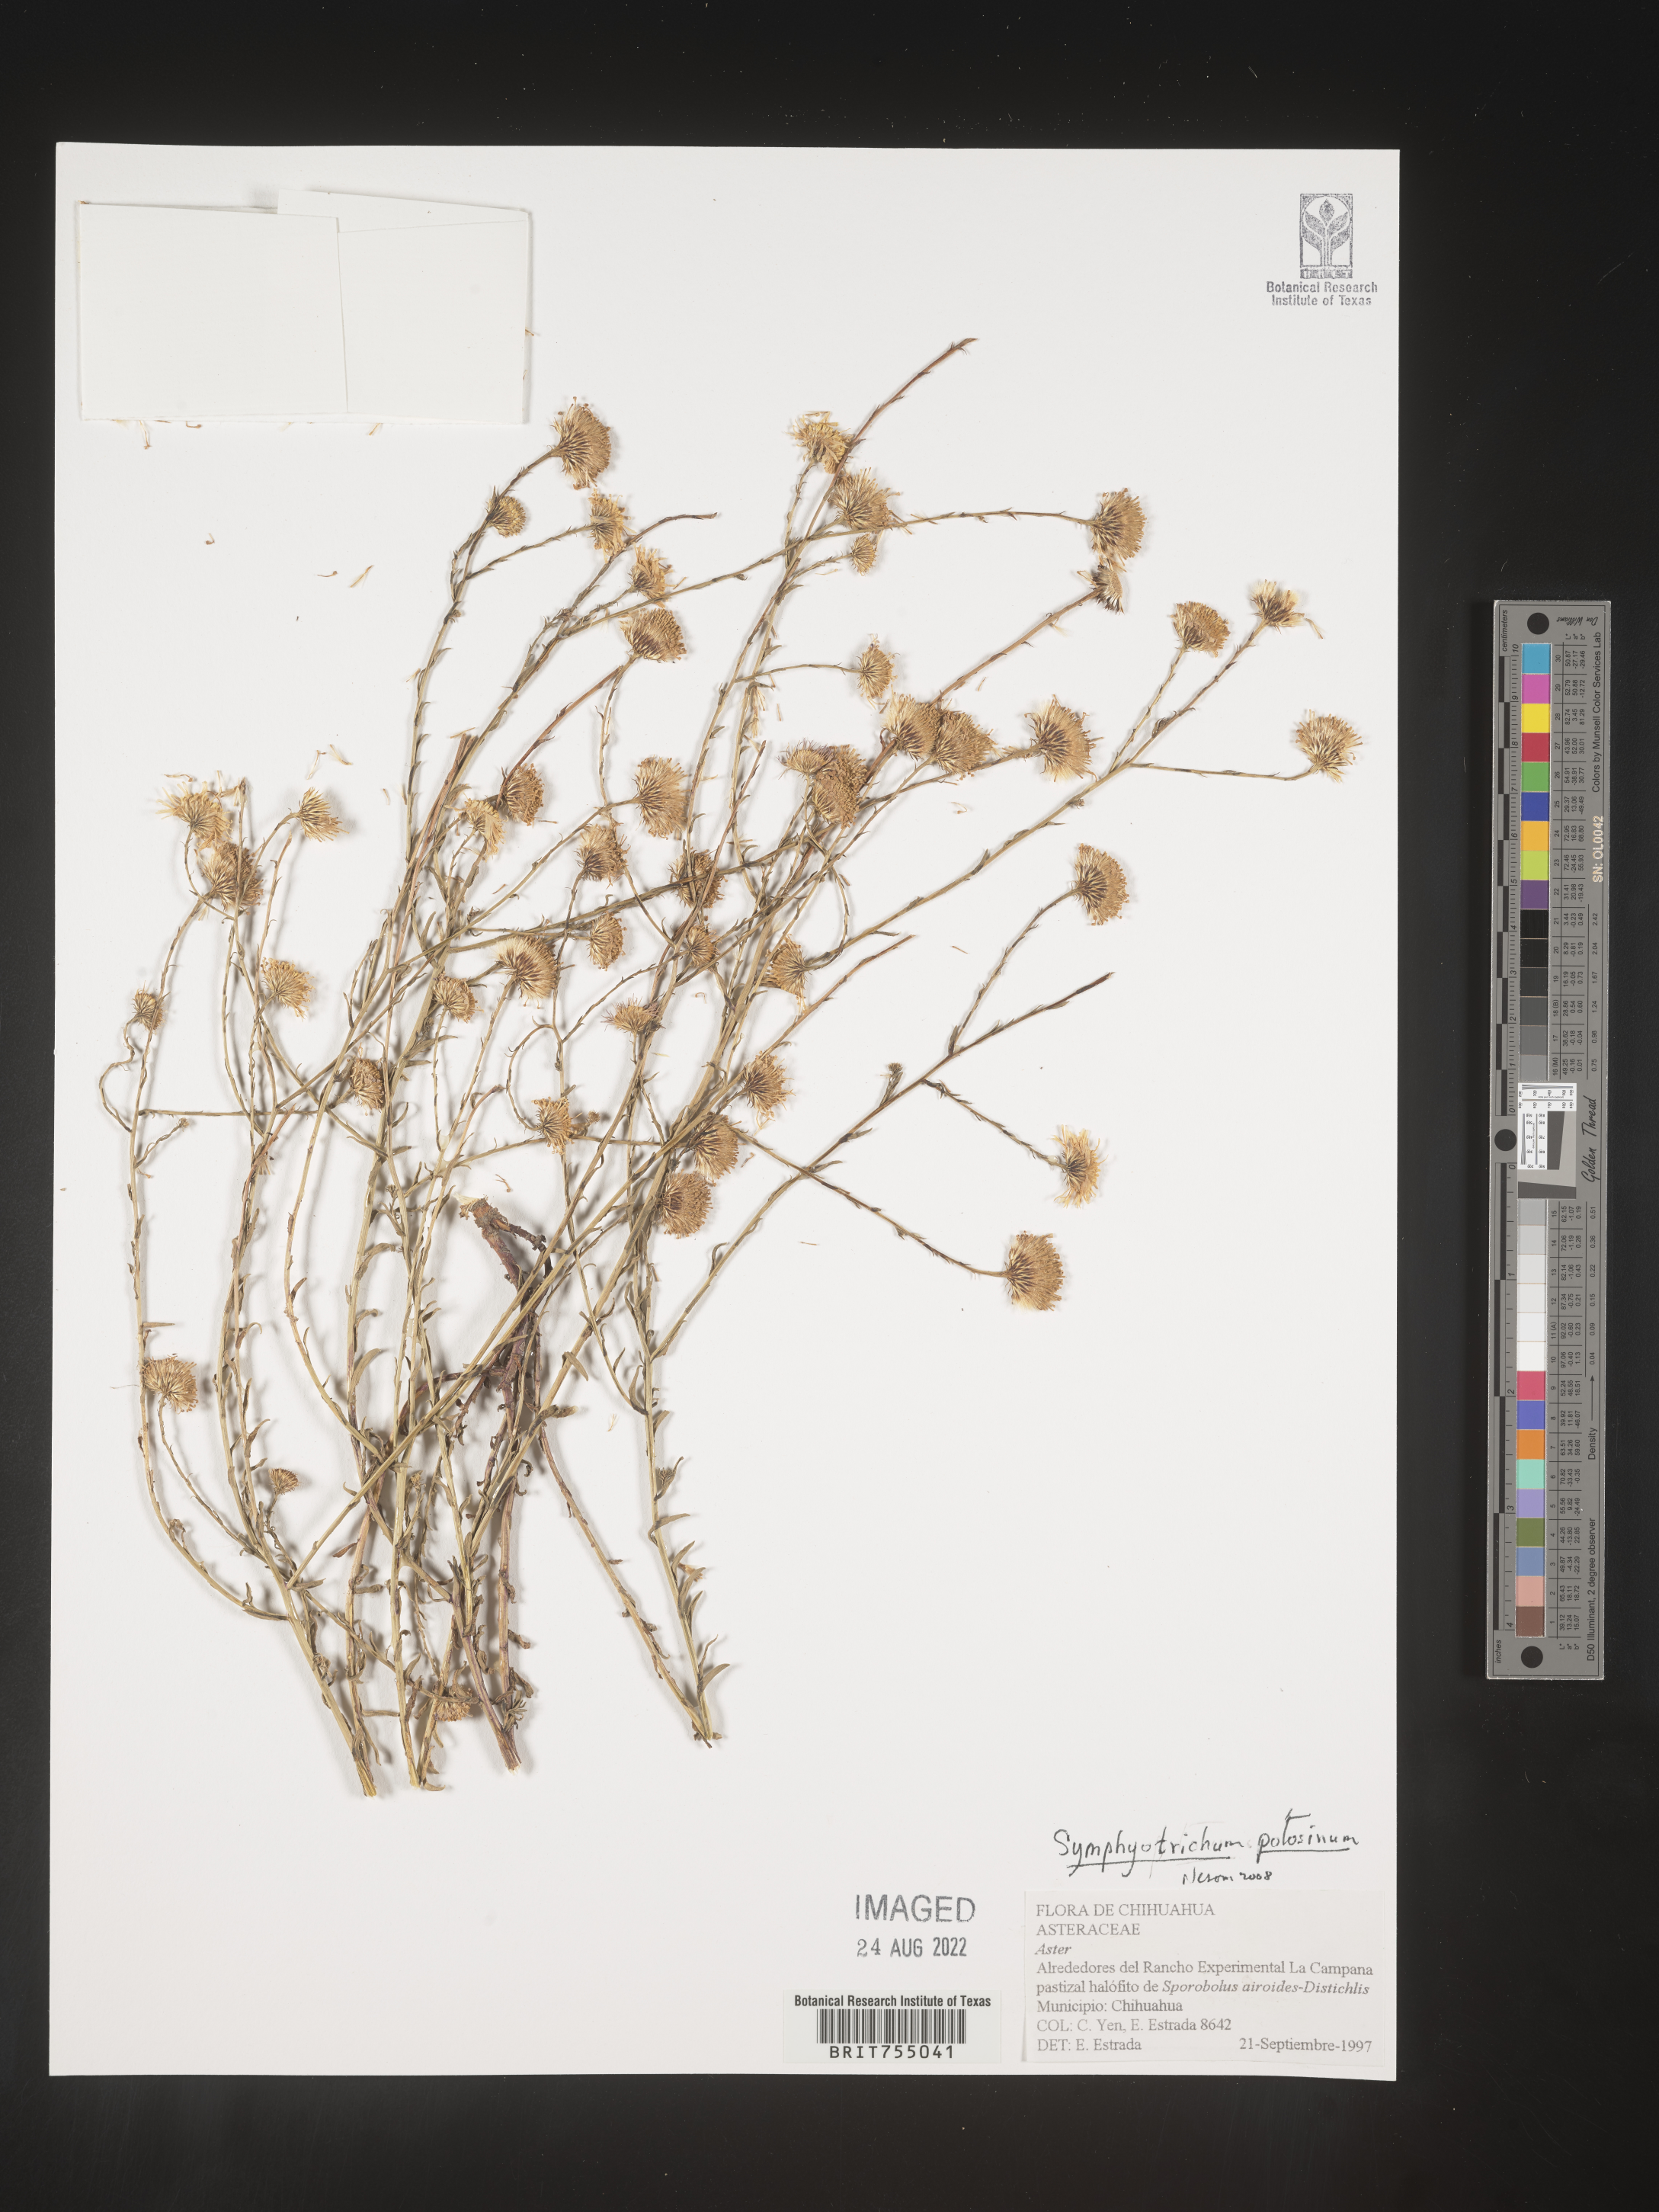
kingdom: Plantae
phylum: Tracheophyta
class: Magnoliopsida
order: Asterales
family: Asteraceae
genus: Symphyotrichum
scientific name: Symphyotrichum potosinum
